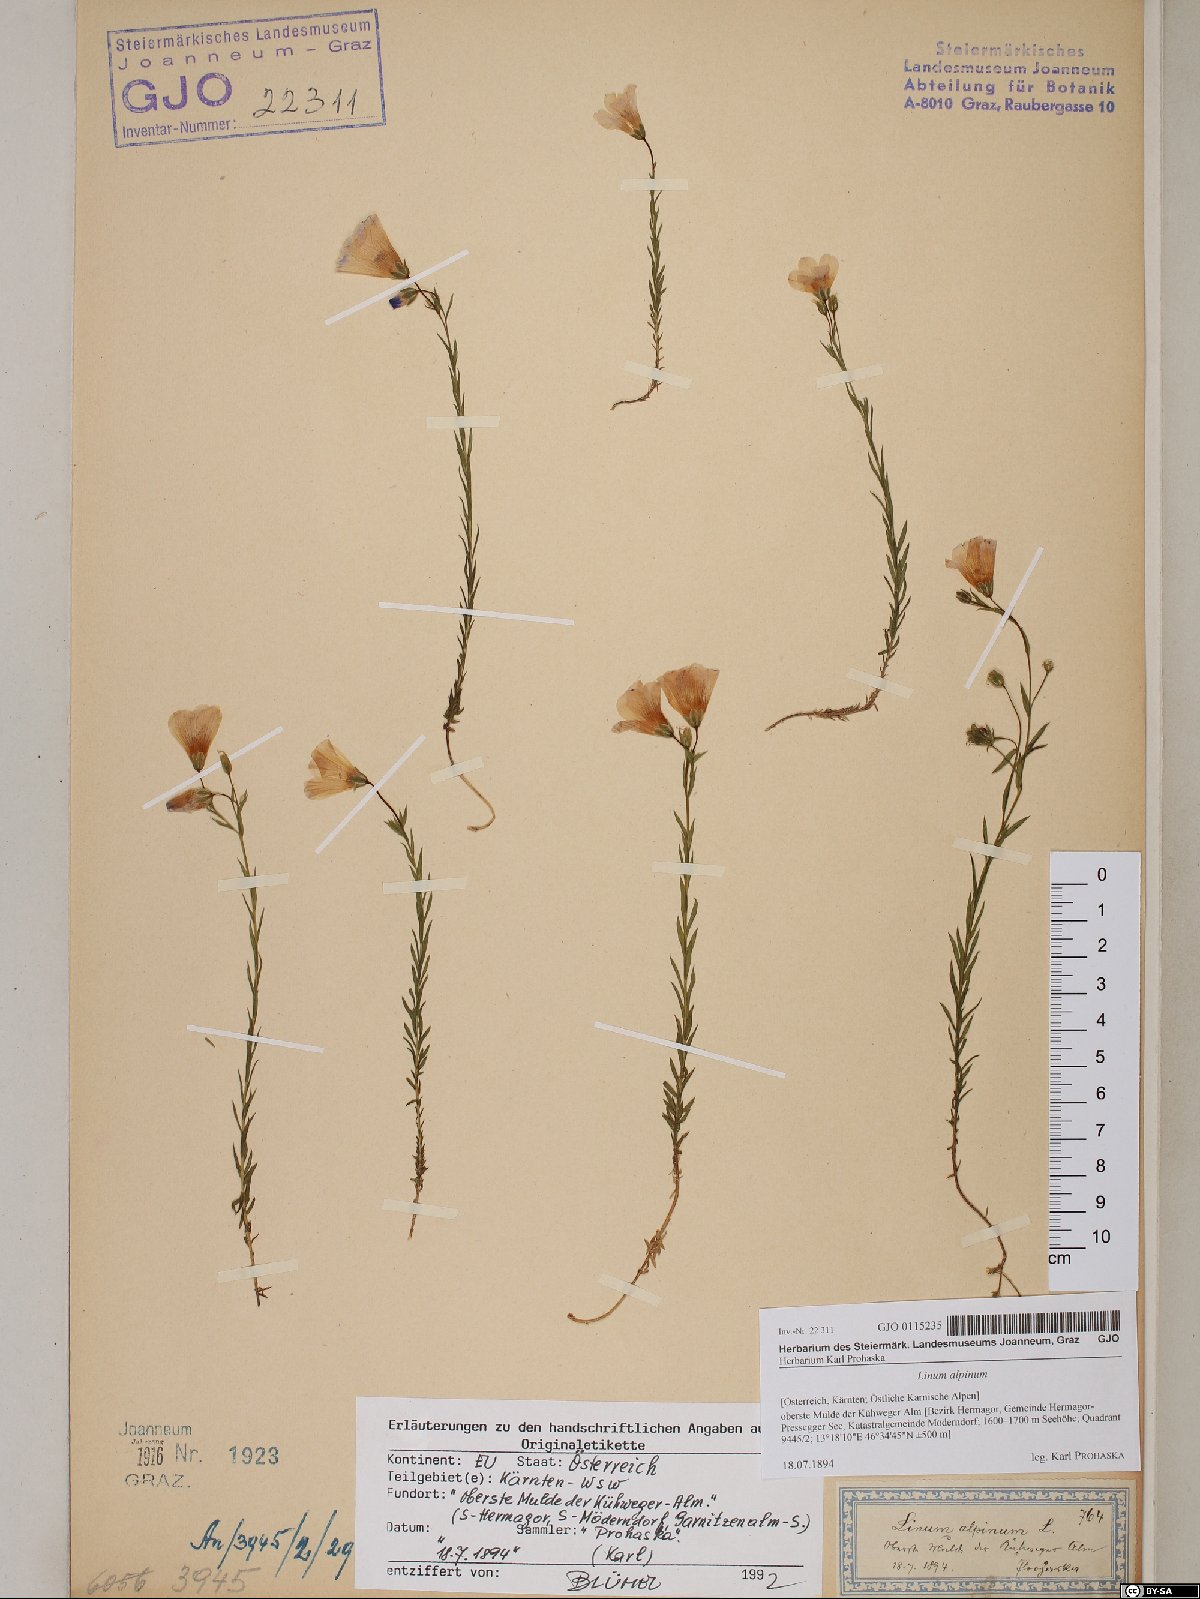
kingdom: Plantae
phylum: Tracheophyta
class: Magnoliopsida
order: Malpighiales
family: Linaceae
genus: Linum
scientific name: Linum alpinum
